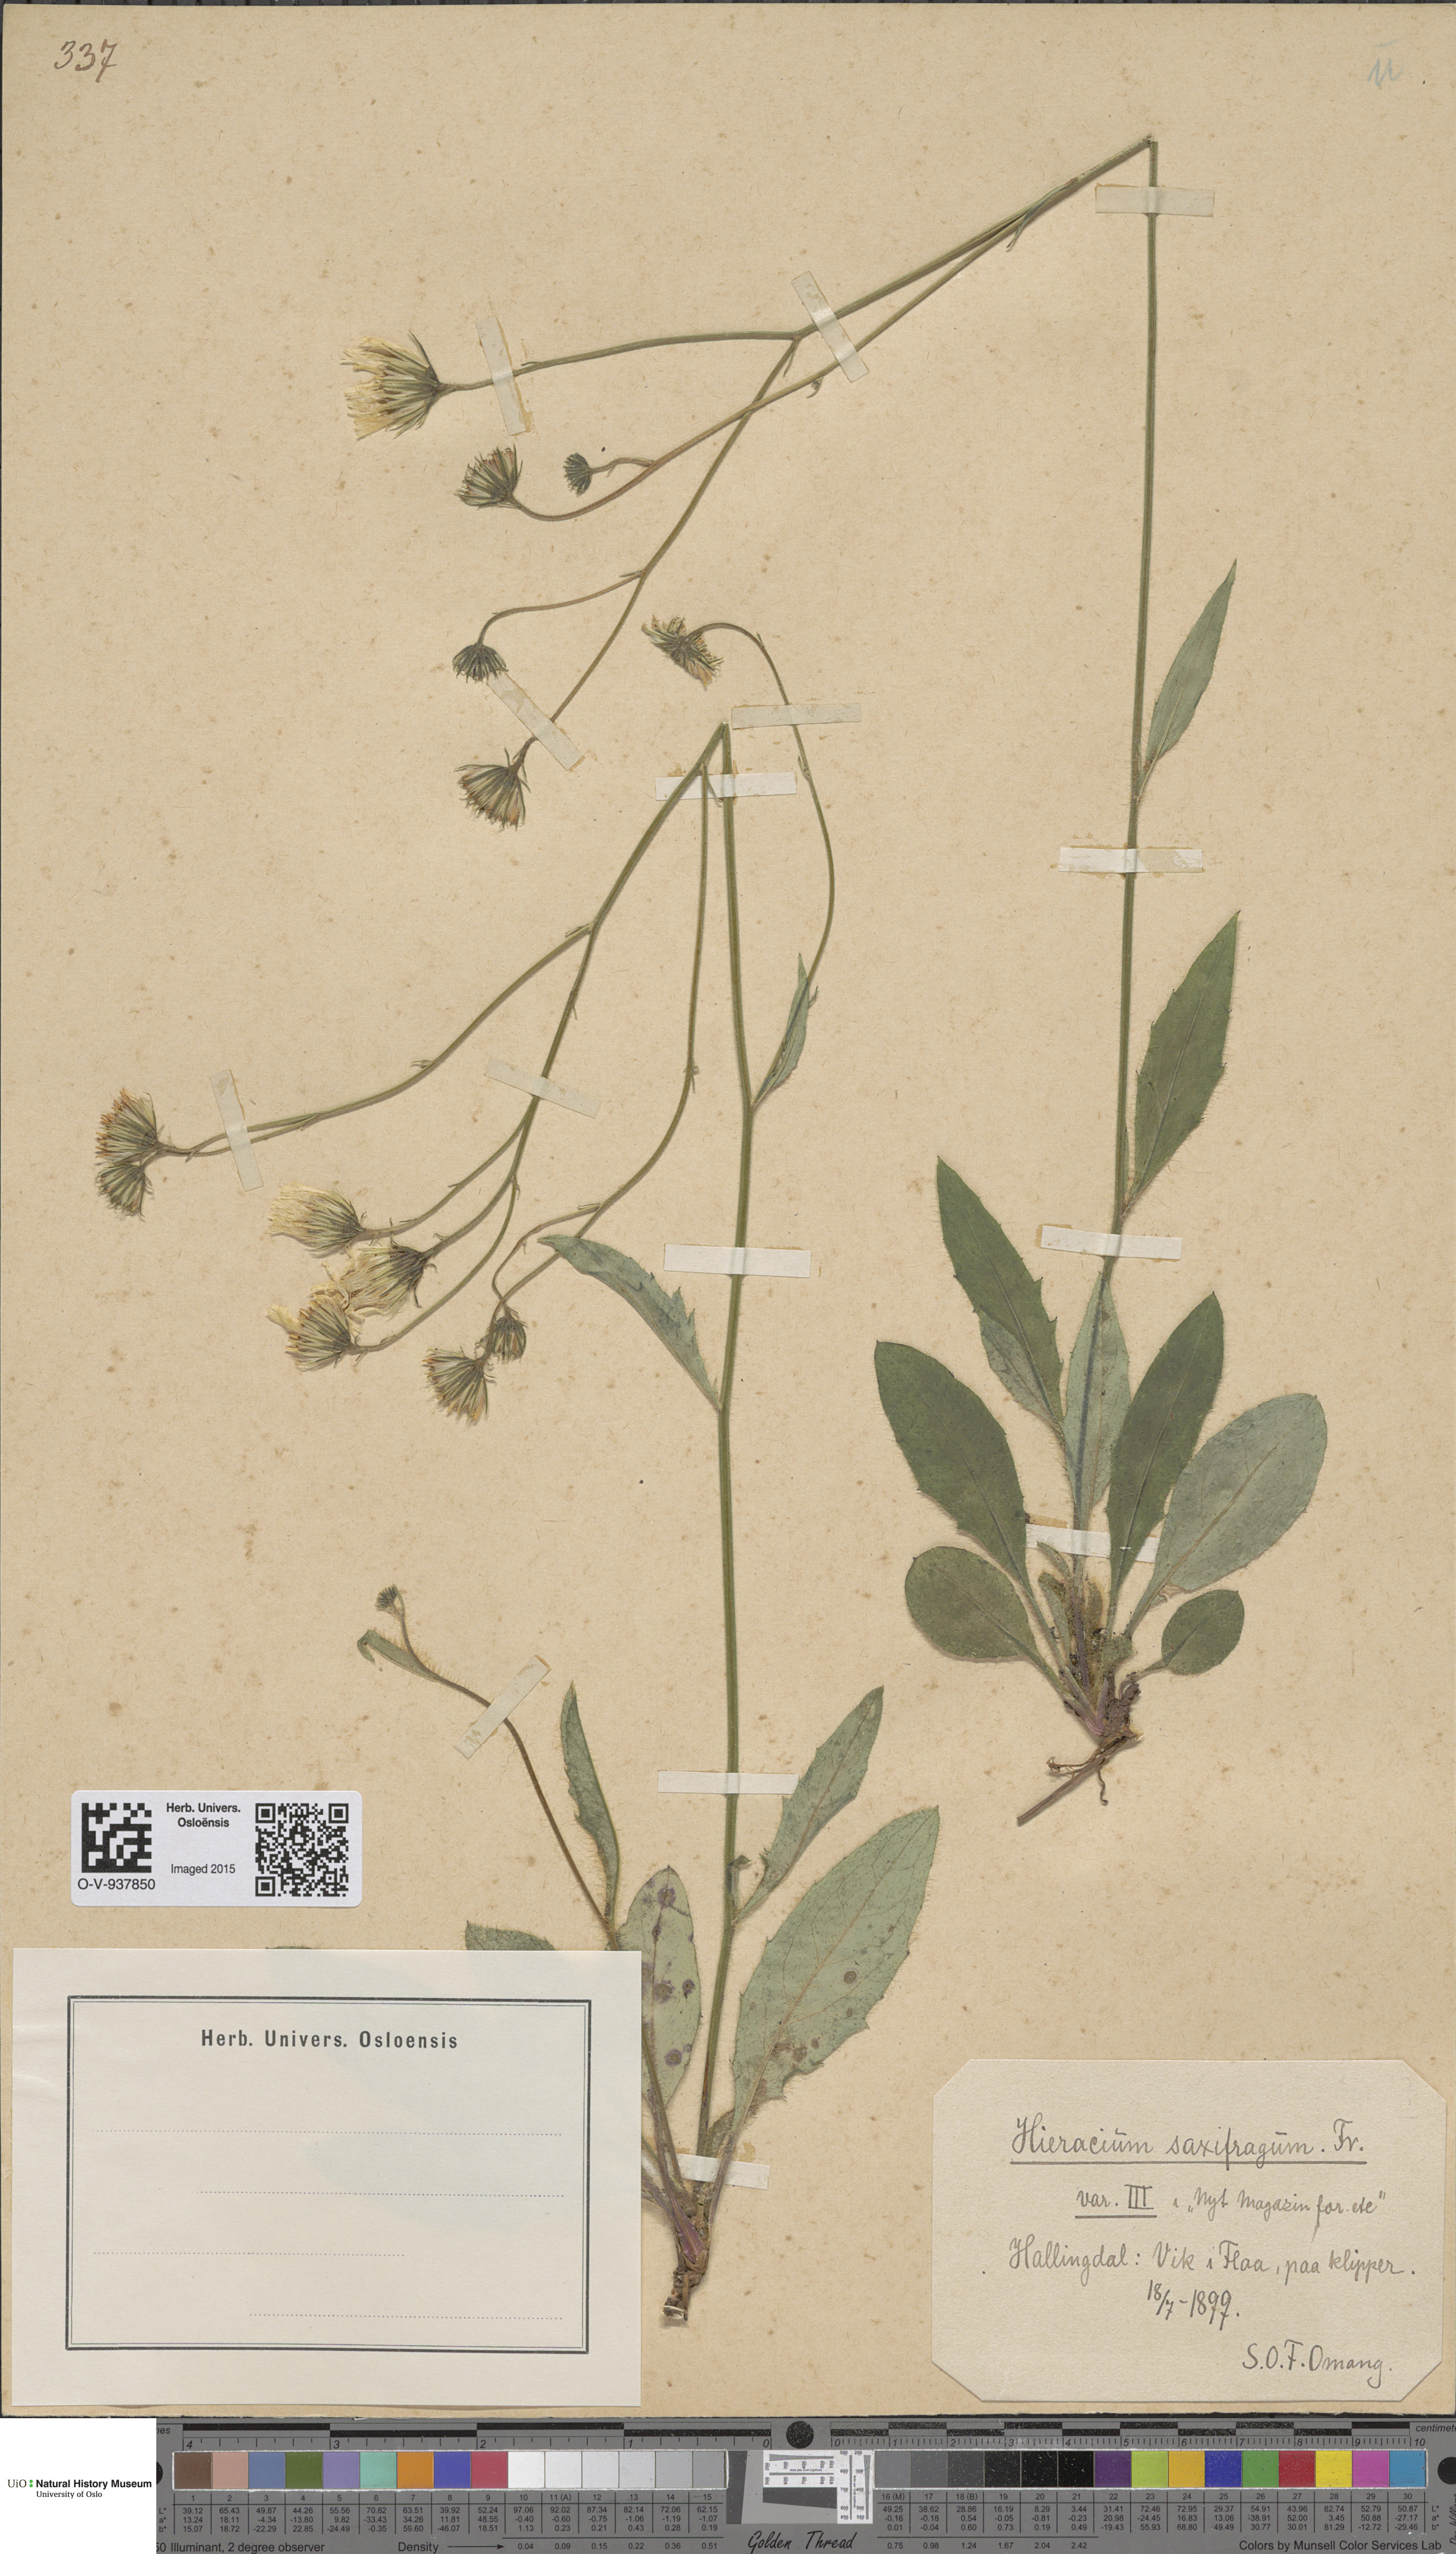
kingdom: Plantae
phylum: Tracheophyta
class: Magnoliopsida
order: Asterales
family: Asteraceae
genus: Hieracium
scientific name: Hieracium saxifragum
